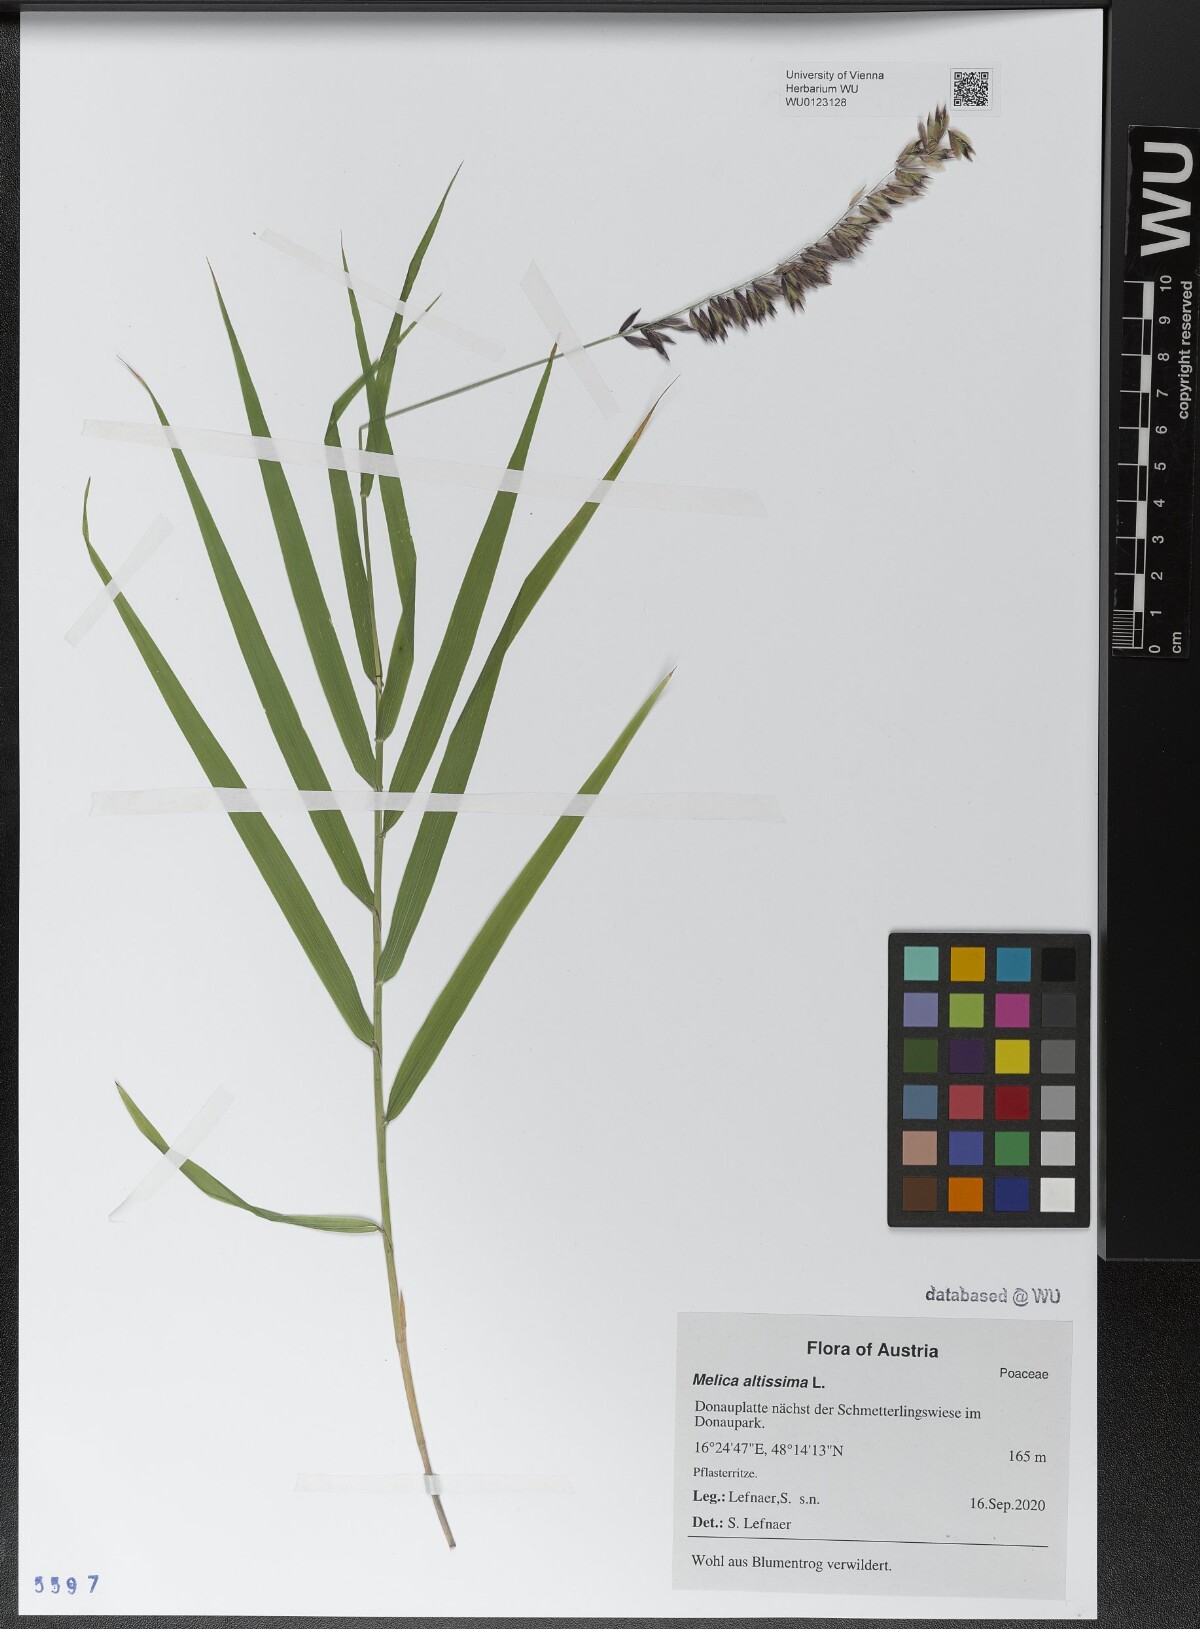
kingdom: Plantae
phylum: Tracheophyta
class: Liliopsida
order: Poales
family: Poaceae
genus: Melica
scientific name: Melica altissima
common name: Siberian melicgrass
